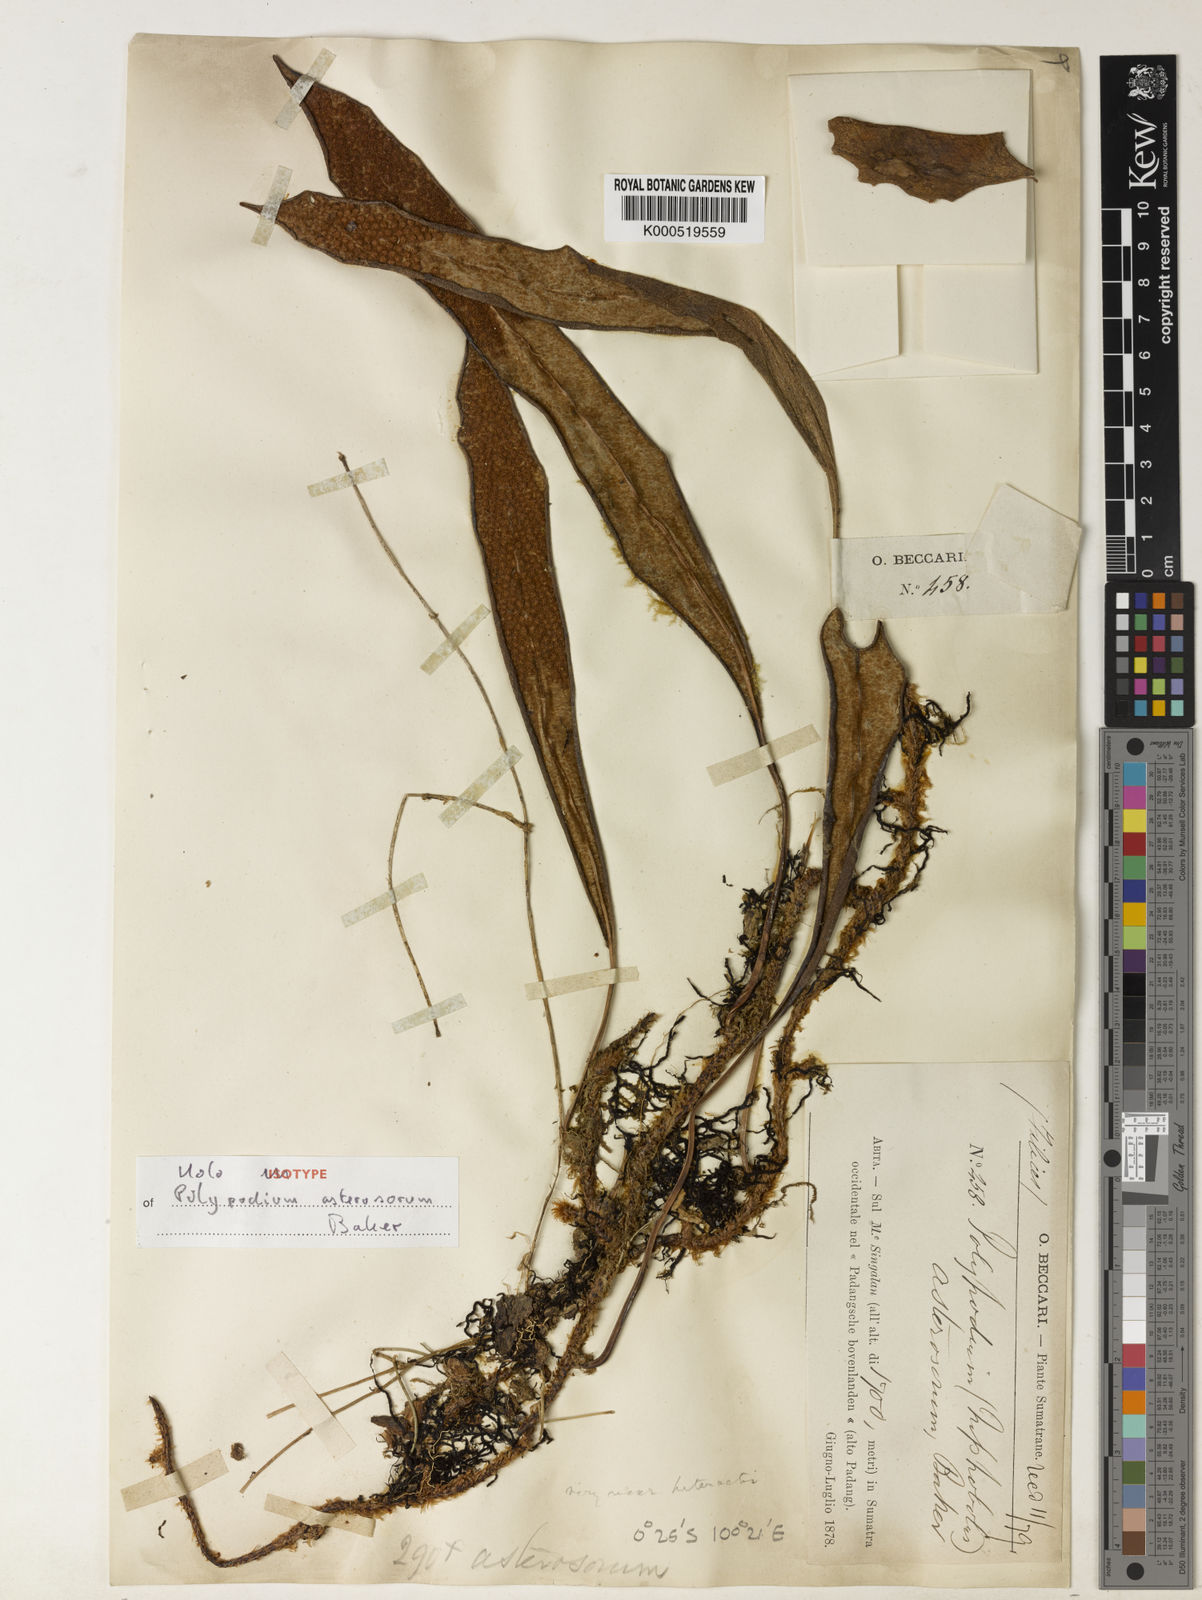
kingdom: Plantae
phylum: Tracheophyta
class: Polypodiopsida
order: Polypodiales
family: Polypodiaceae
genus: Pyrrosia
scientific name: Pyrrosia asterosora
